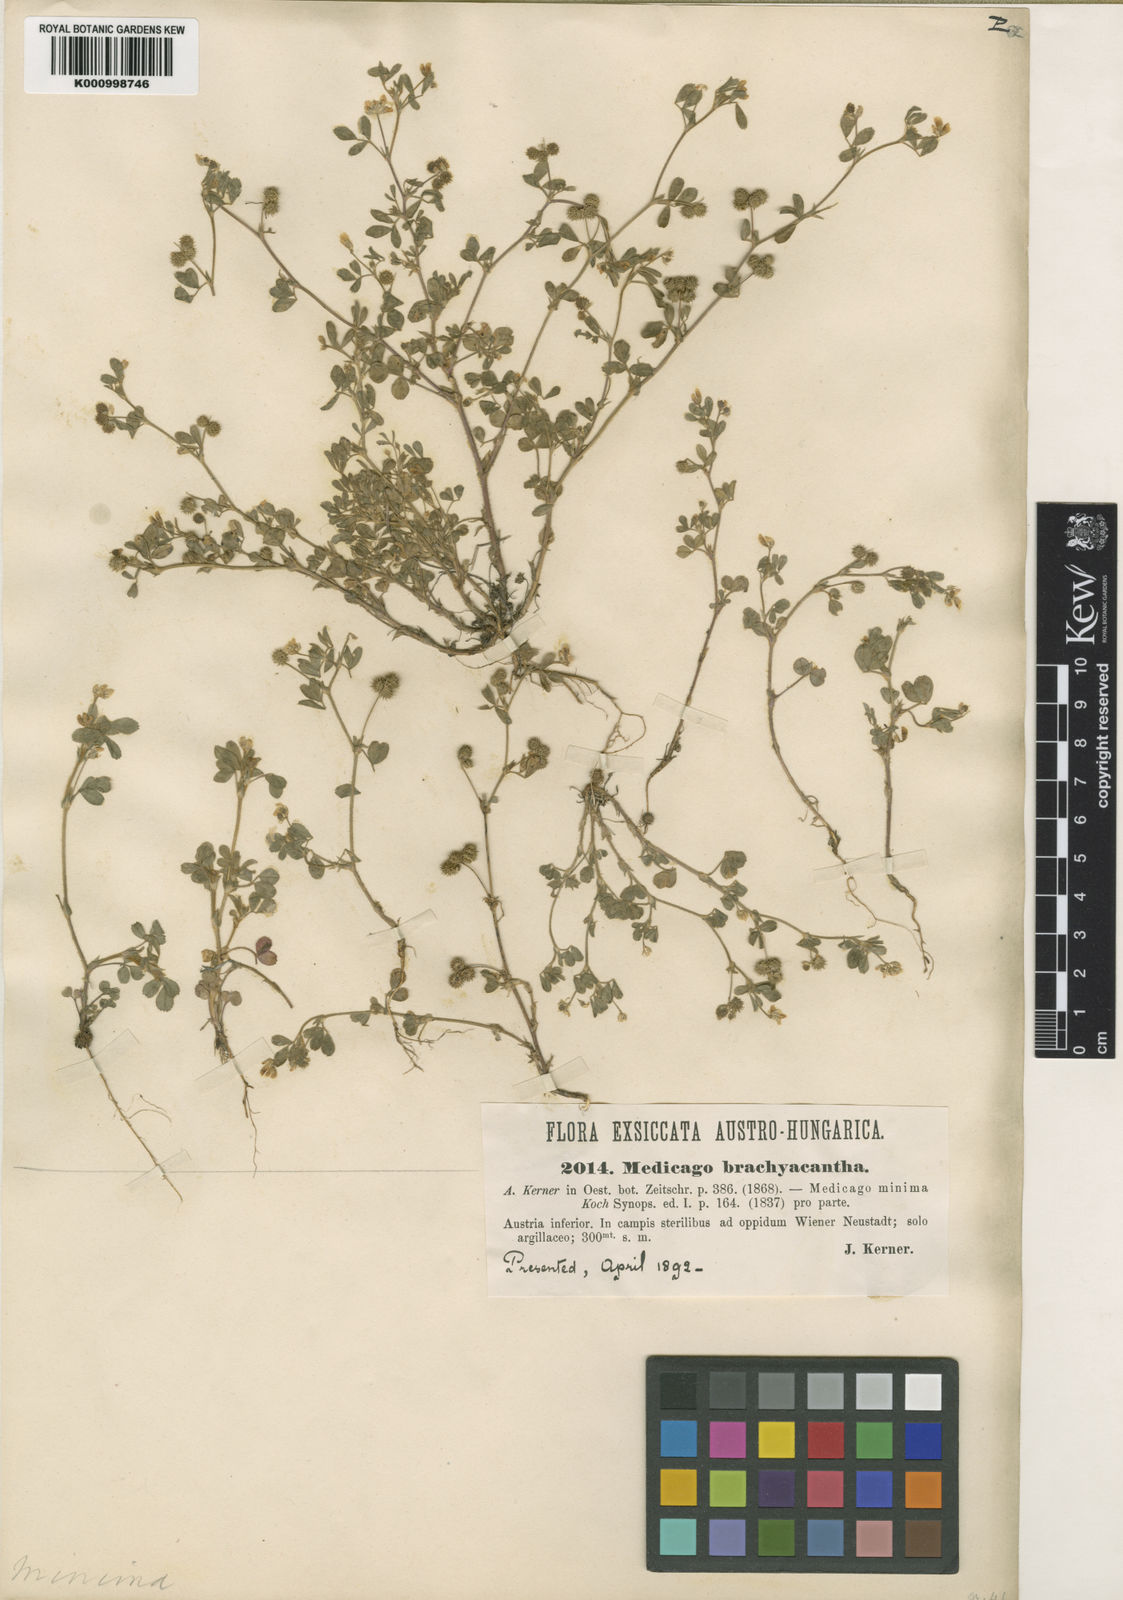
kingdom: Plantae
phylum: Tracheophyta
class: Magnoliopsida
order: Fabales
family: Fabaceae
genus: Medicago
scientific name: Medicago minima
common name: Little bur-clover
